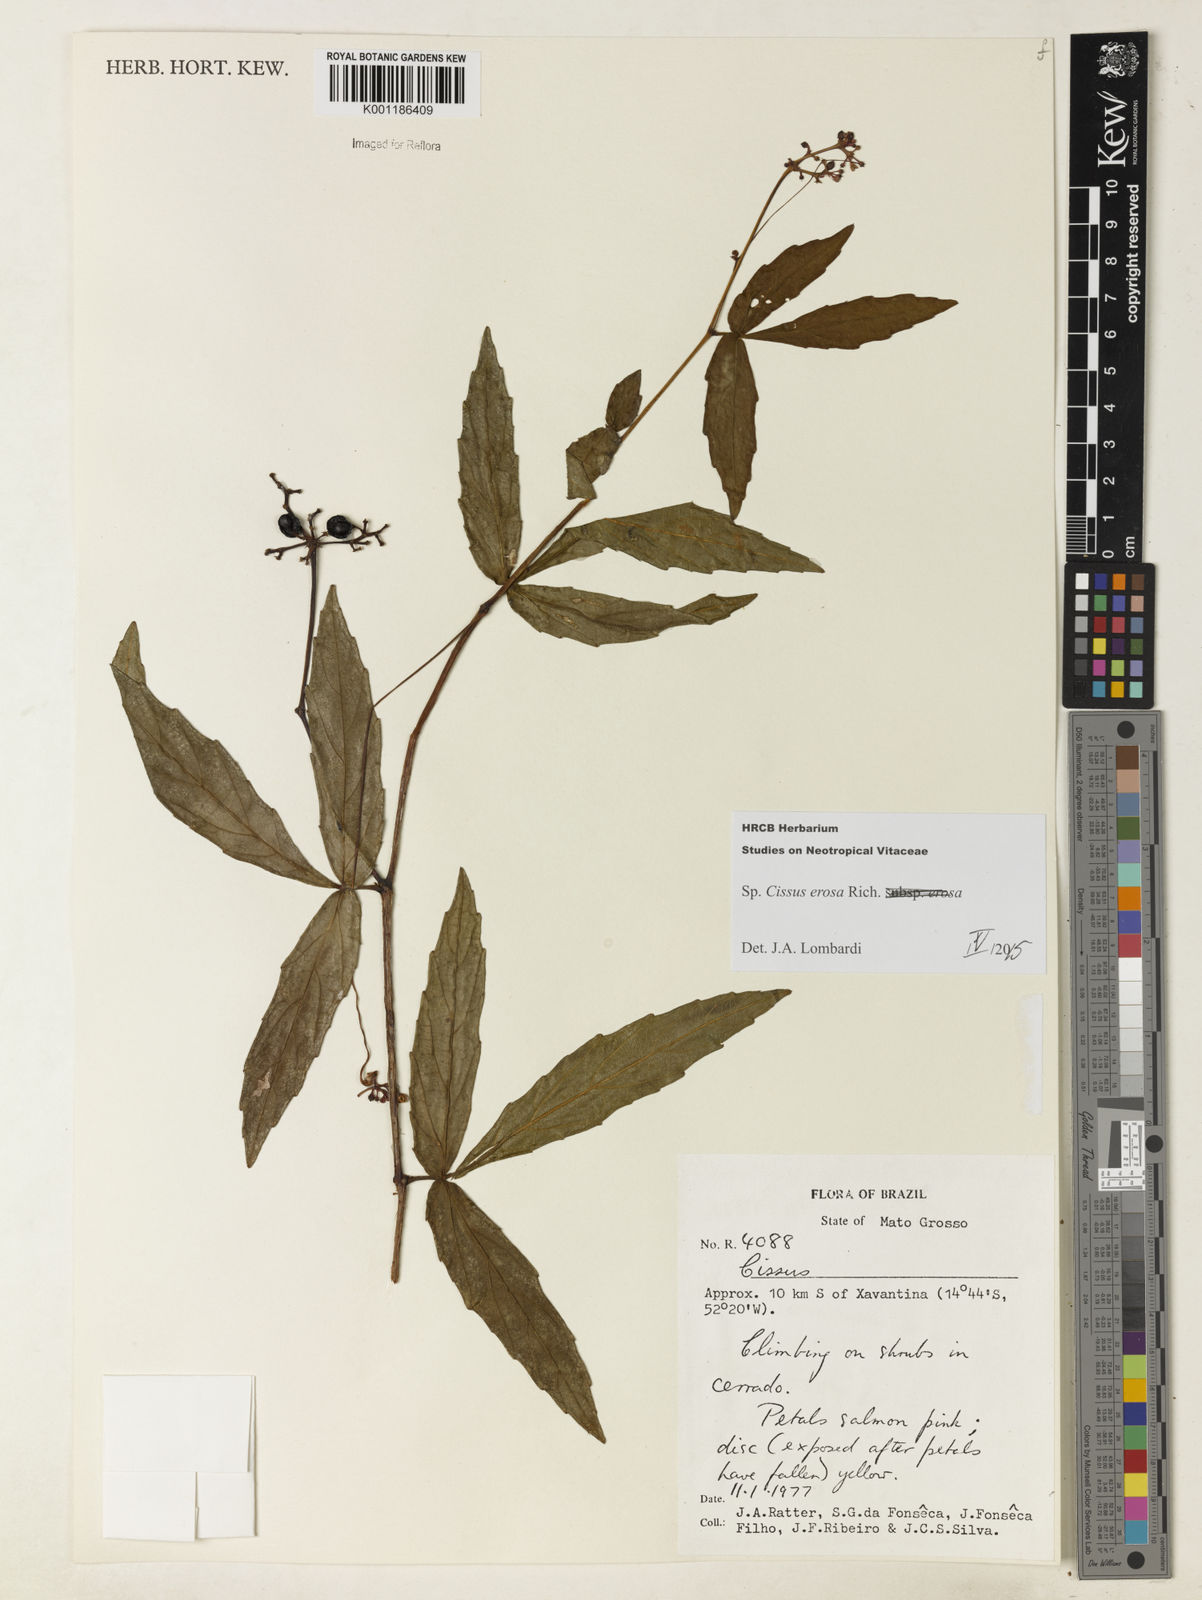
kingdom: Plantae
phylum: Tracheophyta
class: Magnoliopsida
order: Vitales
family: Vitaceae
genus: Cissus
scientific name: Cissus erosa
